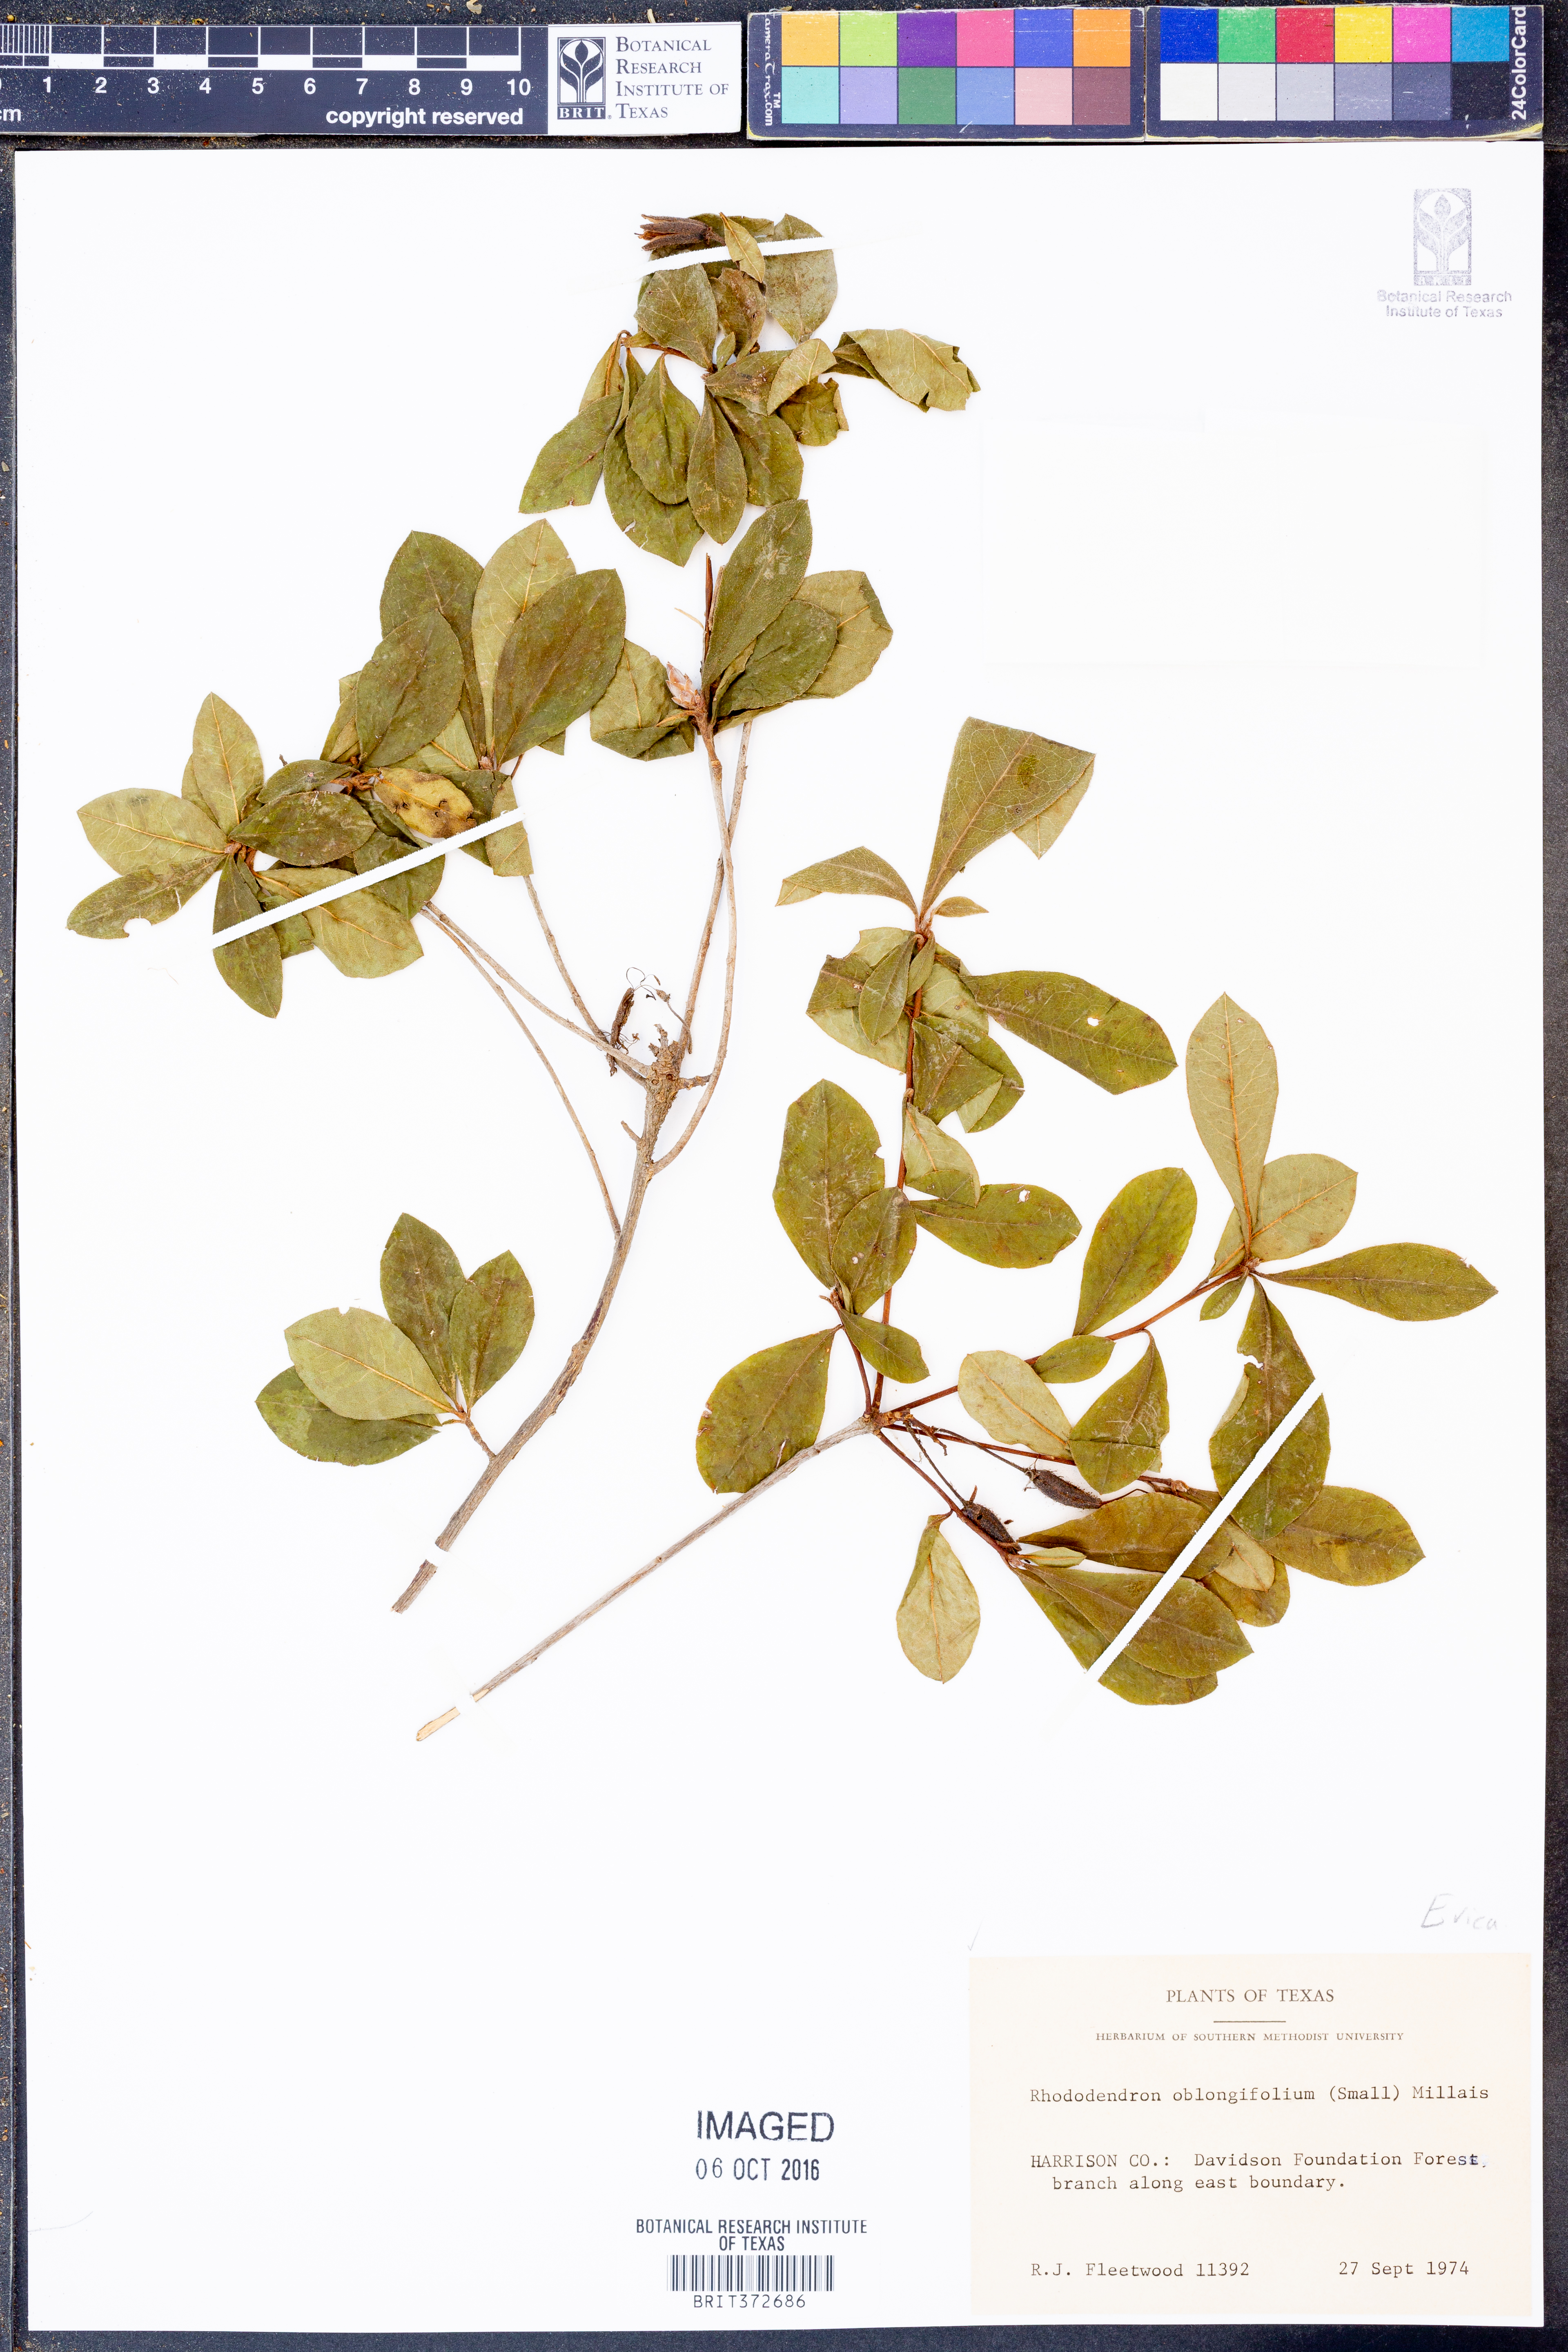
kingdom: Plantae
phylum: Tracheophyta
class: Magnoliopsida
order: Ericales
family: Ericaceae
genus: Rhododendron
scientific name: Rhododendron viscosum
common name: Clammy azalea
